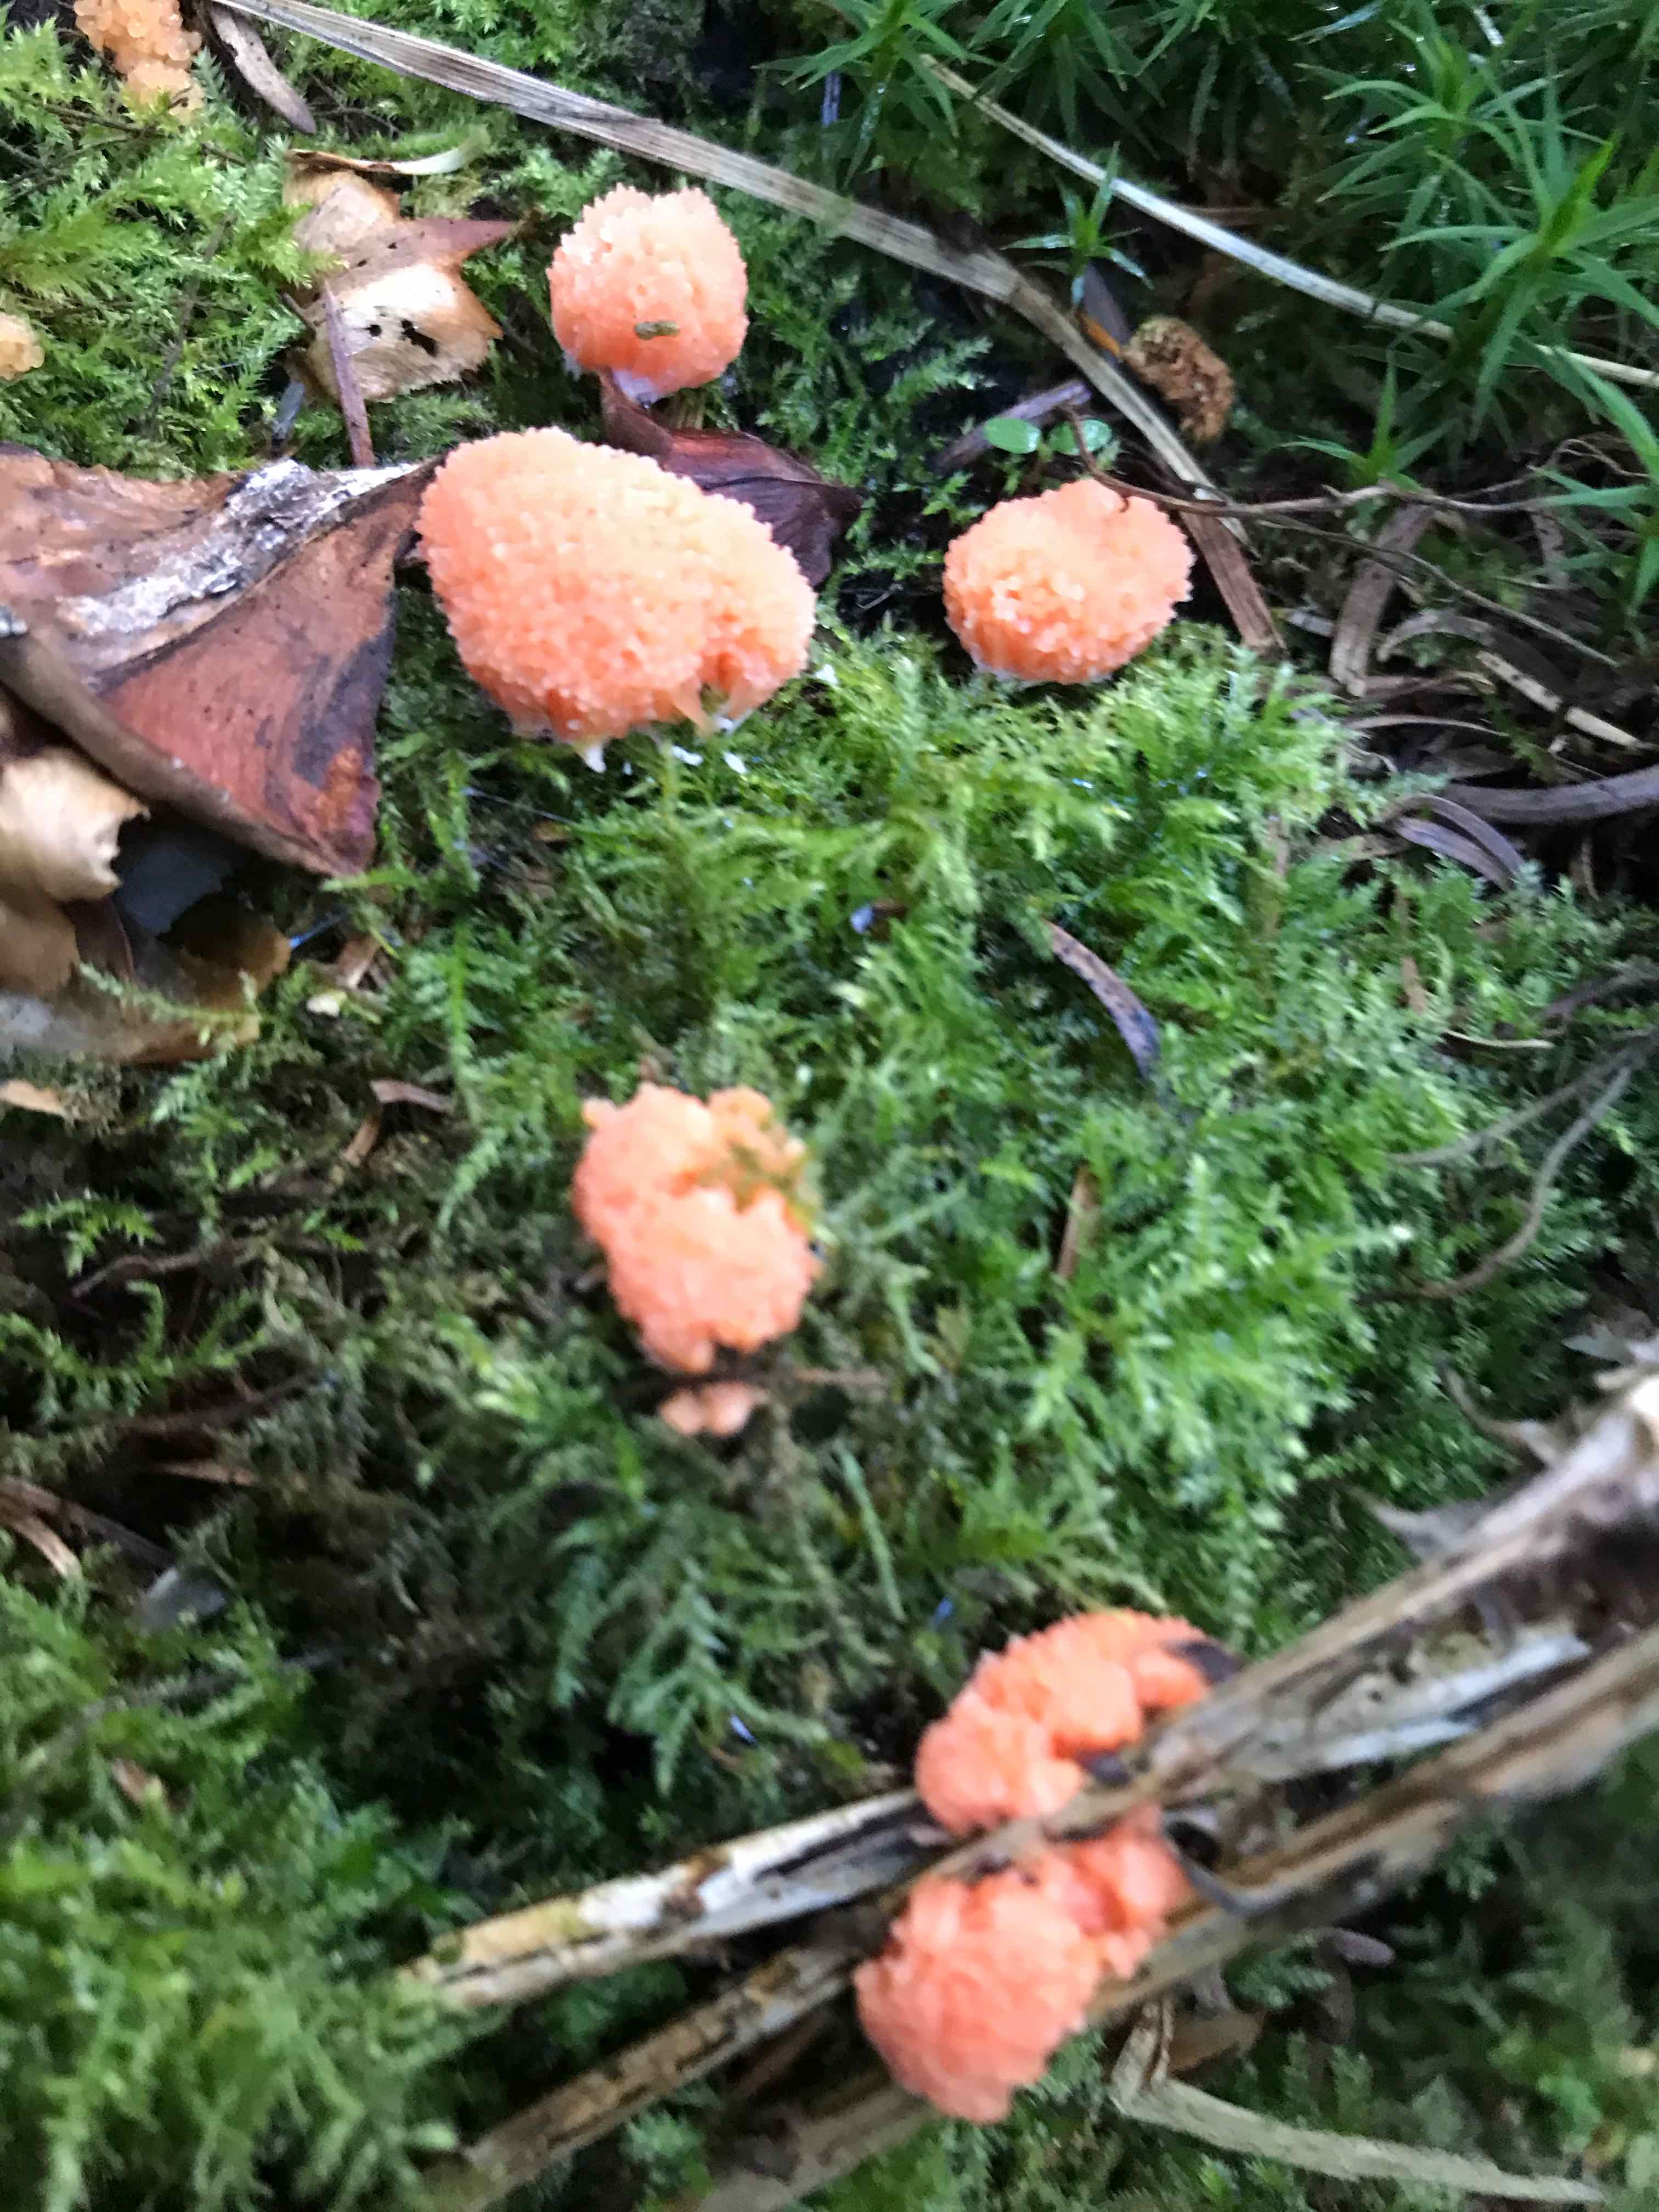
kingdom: Protozoa
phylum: Mycetozoa
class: Myxomycetes
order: Cribrariales
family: Tubiferaceae
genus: Tubifera
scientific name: Tubifera ferruginosa
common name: kanel-støvrør
